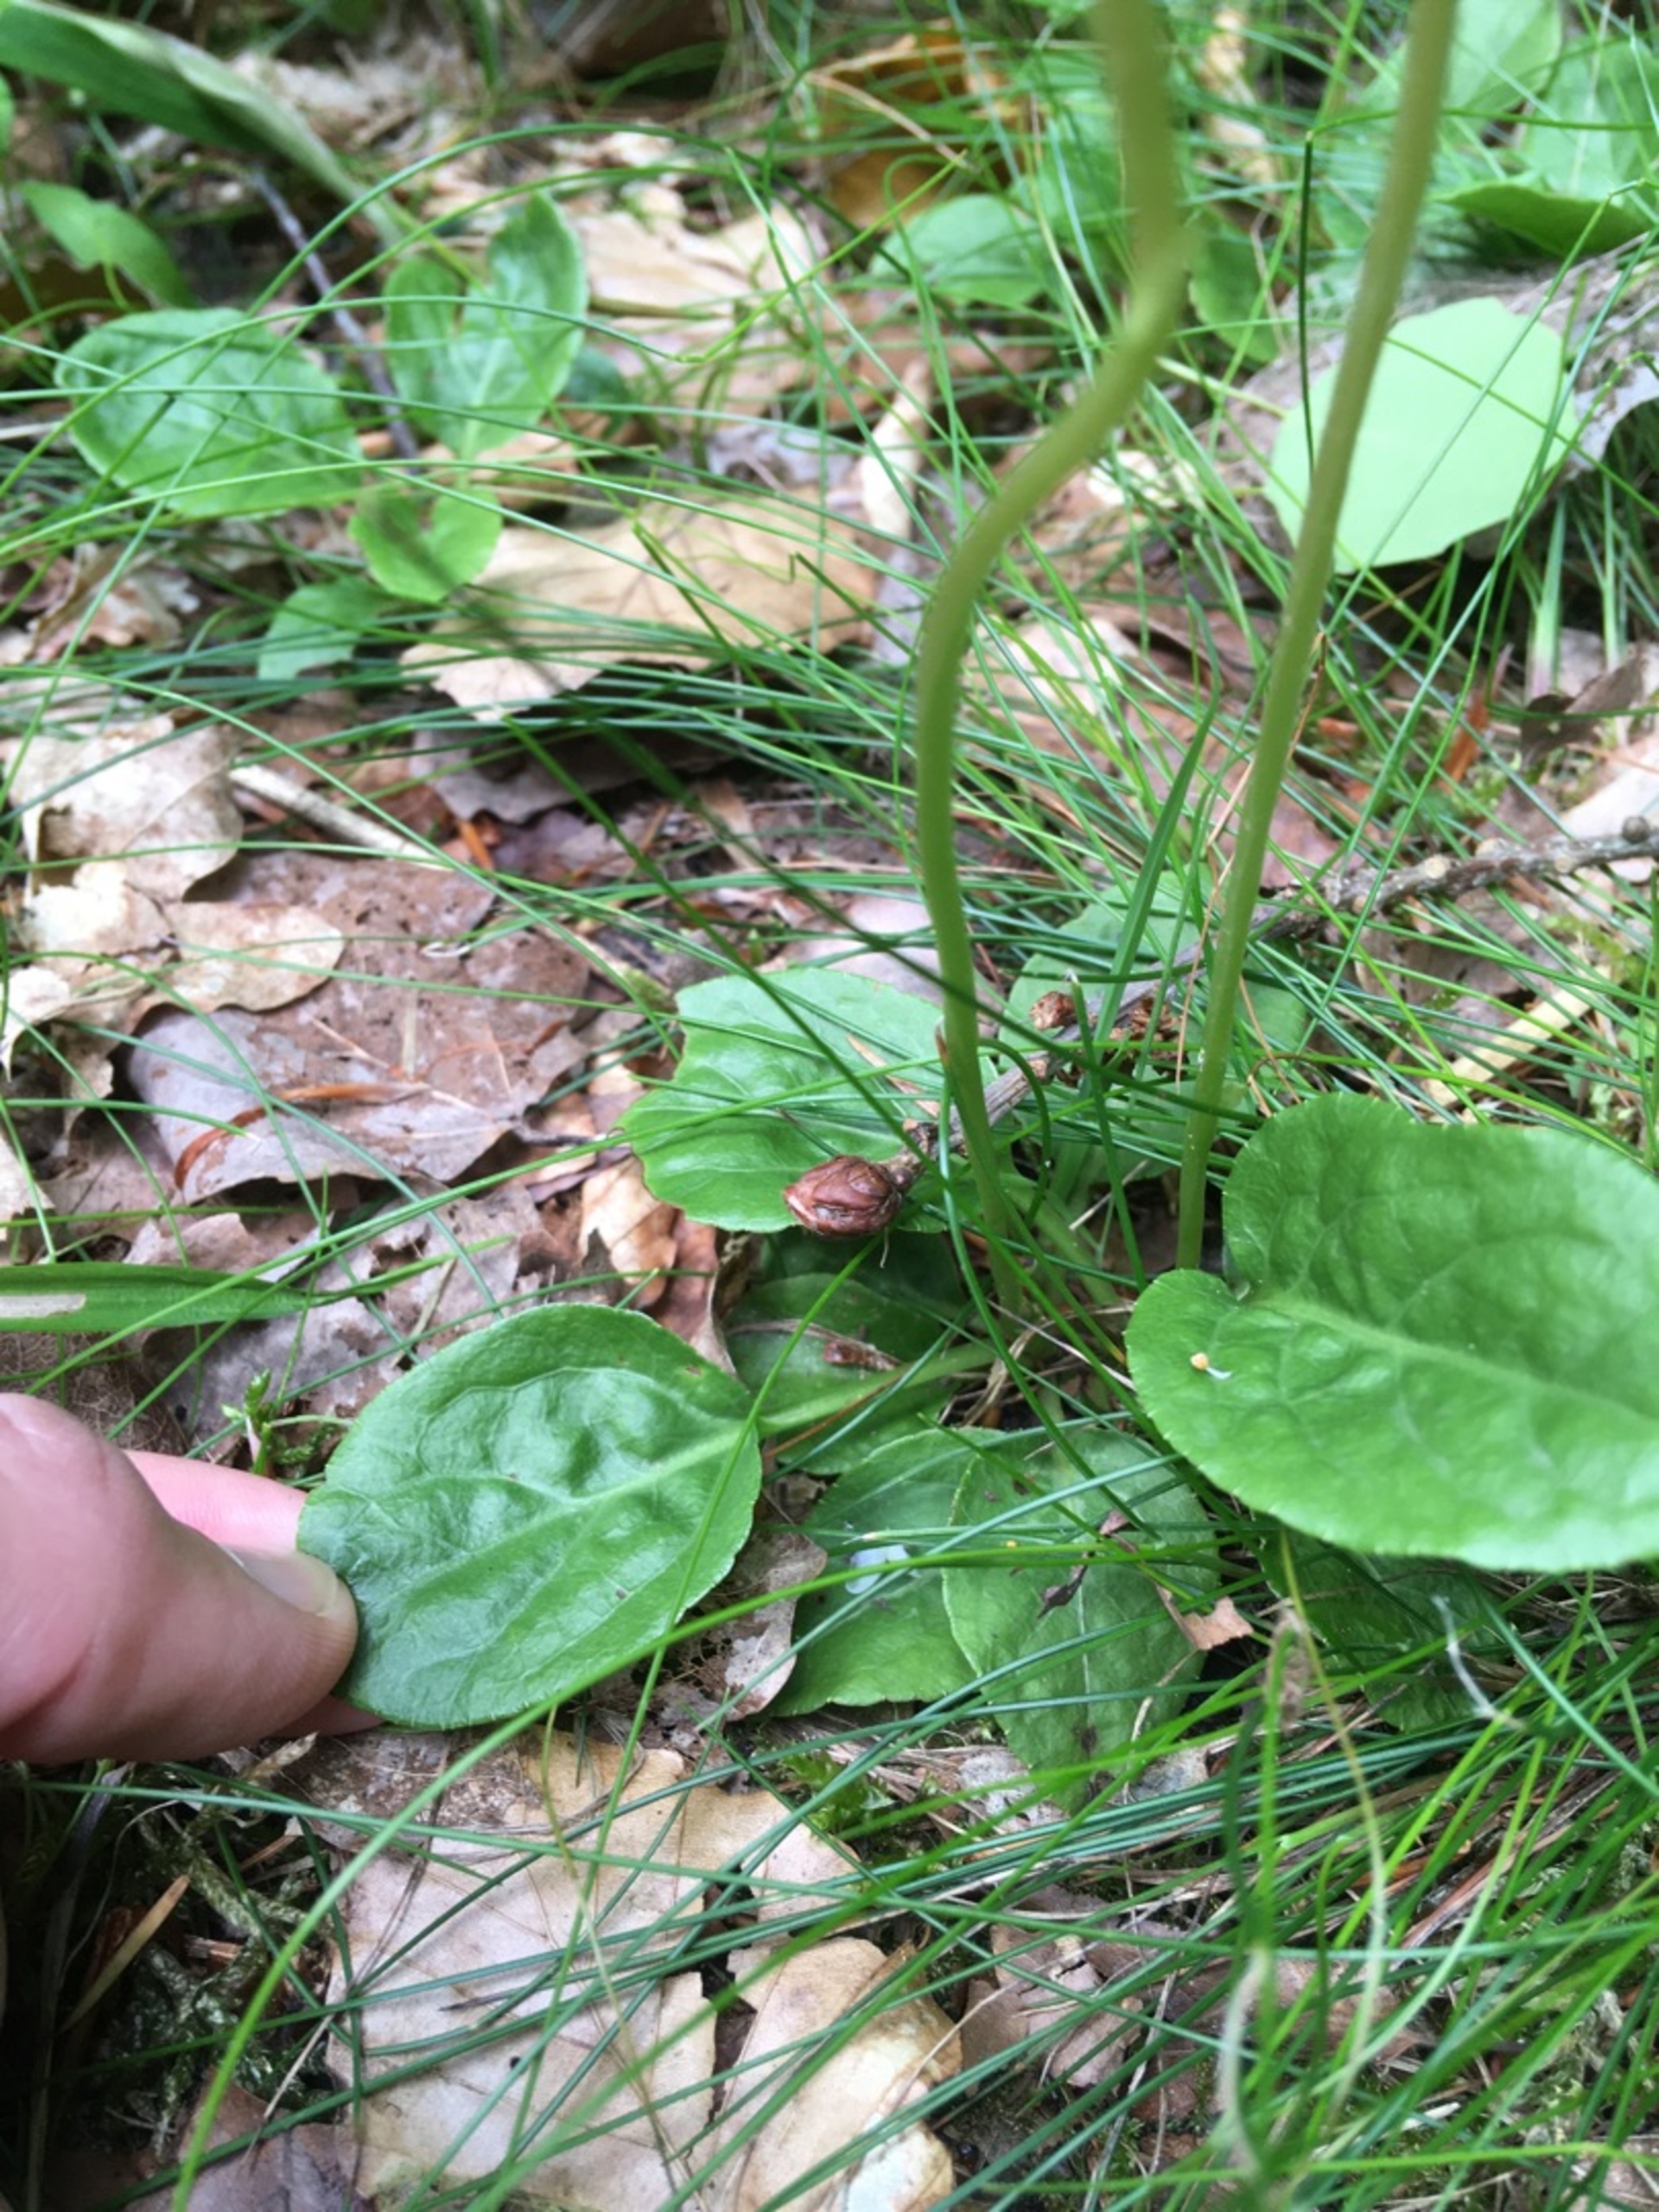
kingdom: Plantae
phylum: Tracheophyta
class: Magnoliopsida
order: Ericales
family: Ericaceae
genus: Pyrola
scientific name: Pyrola minor
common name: Liden vintergrøn
